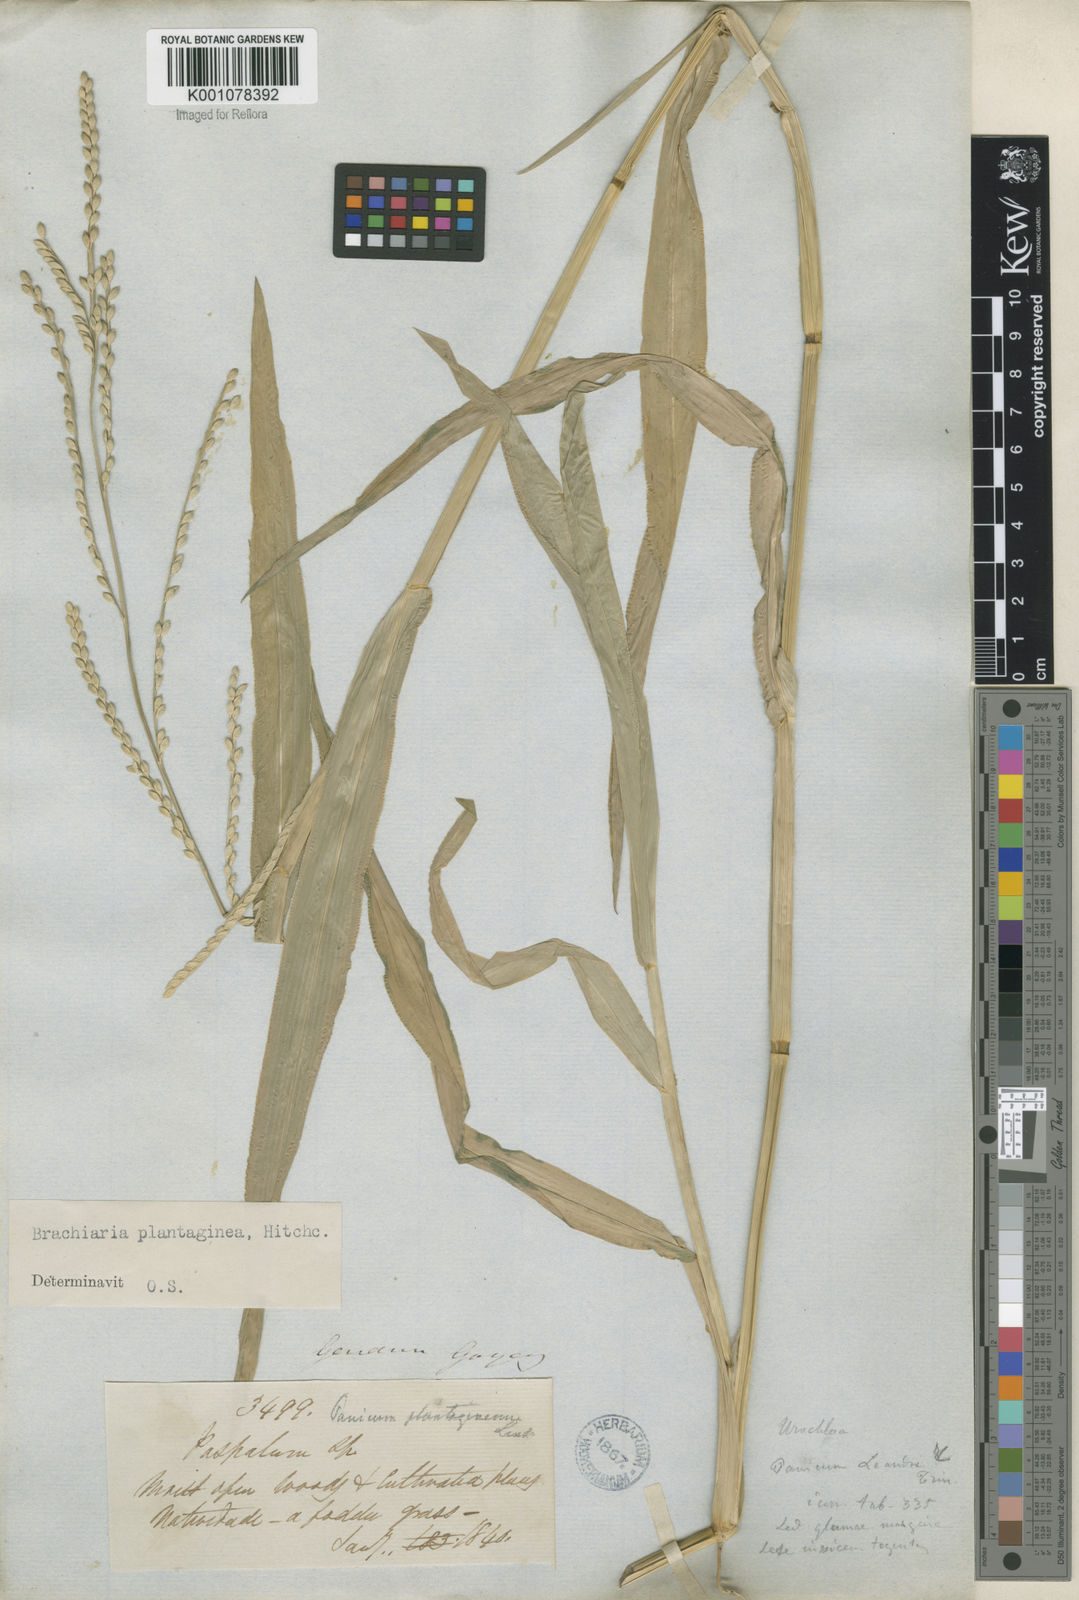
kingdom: Plantae
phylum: Tracheophyta
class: Liliopsida
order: Poales
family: Poaceae
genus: Urochloa
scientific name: Urochloa plantaginea
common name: Plantain signalgrass
